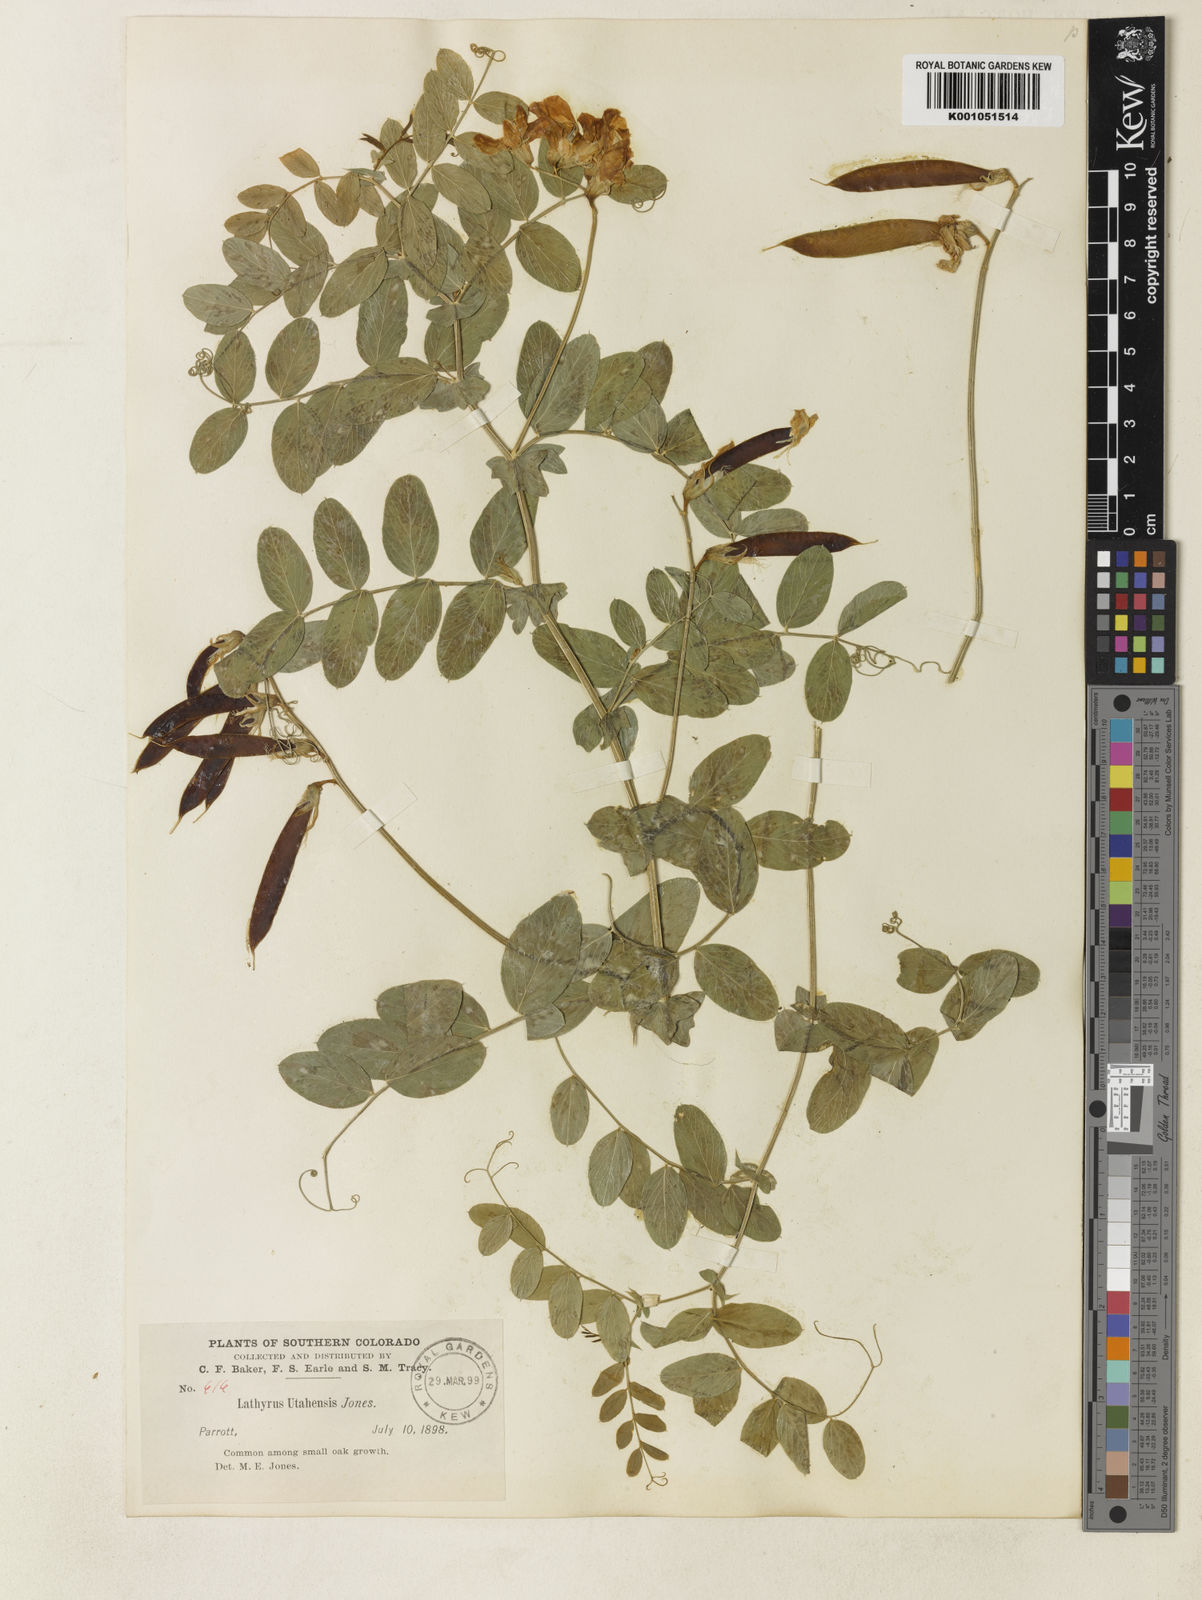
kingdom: Plantae
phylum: Tracheophyta
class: Magnoliopsida
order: Fabales
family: Fabaceae
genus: Lathyrus
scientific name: Lathyrus pauciflorus
